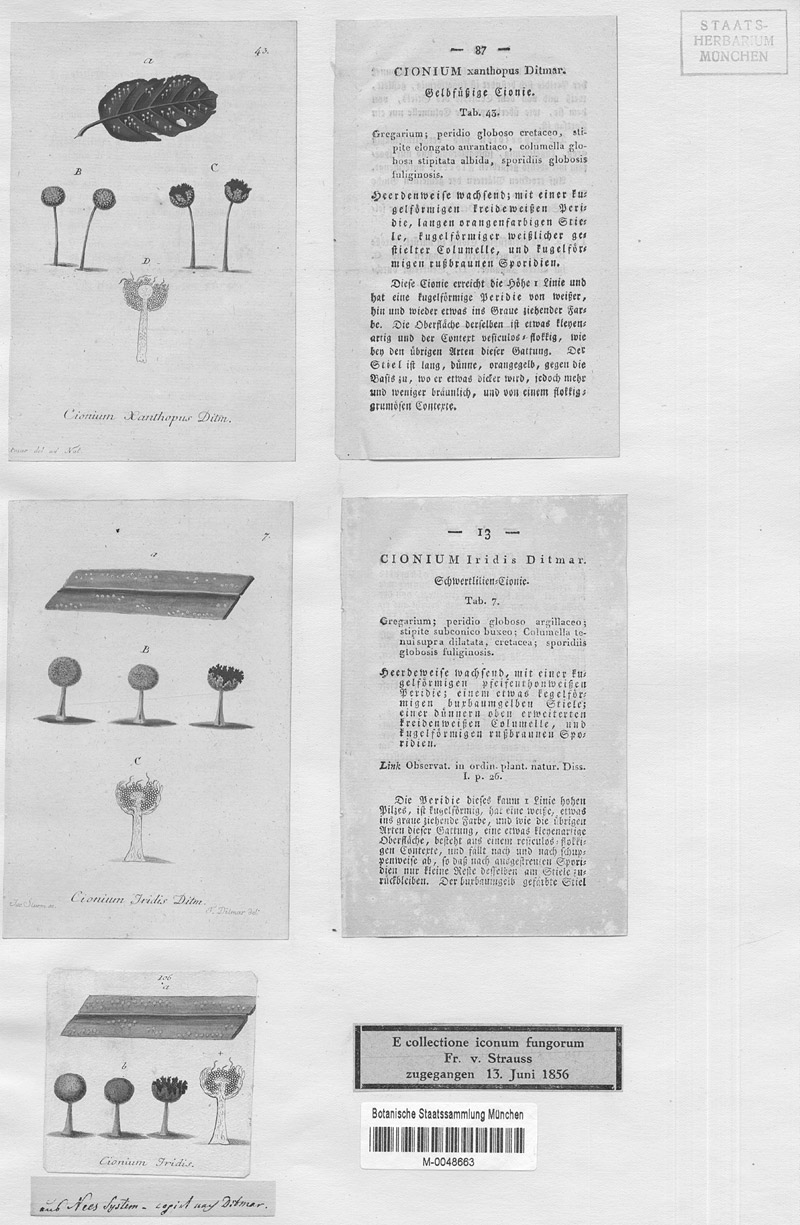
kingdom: Protozoa
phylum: Mycetozoa
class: Myxomycetes
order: Physarales
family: Didymiaceae
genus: Didymium
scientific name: Didymium iridis
